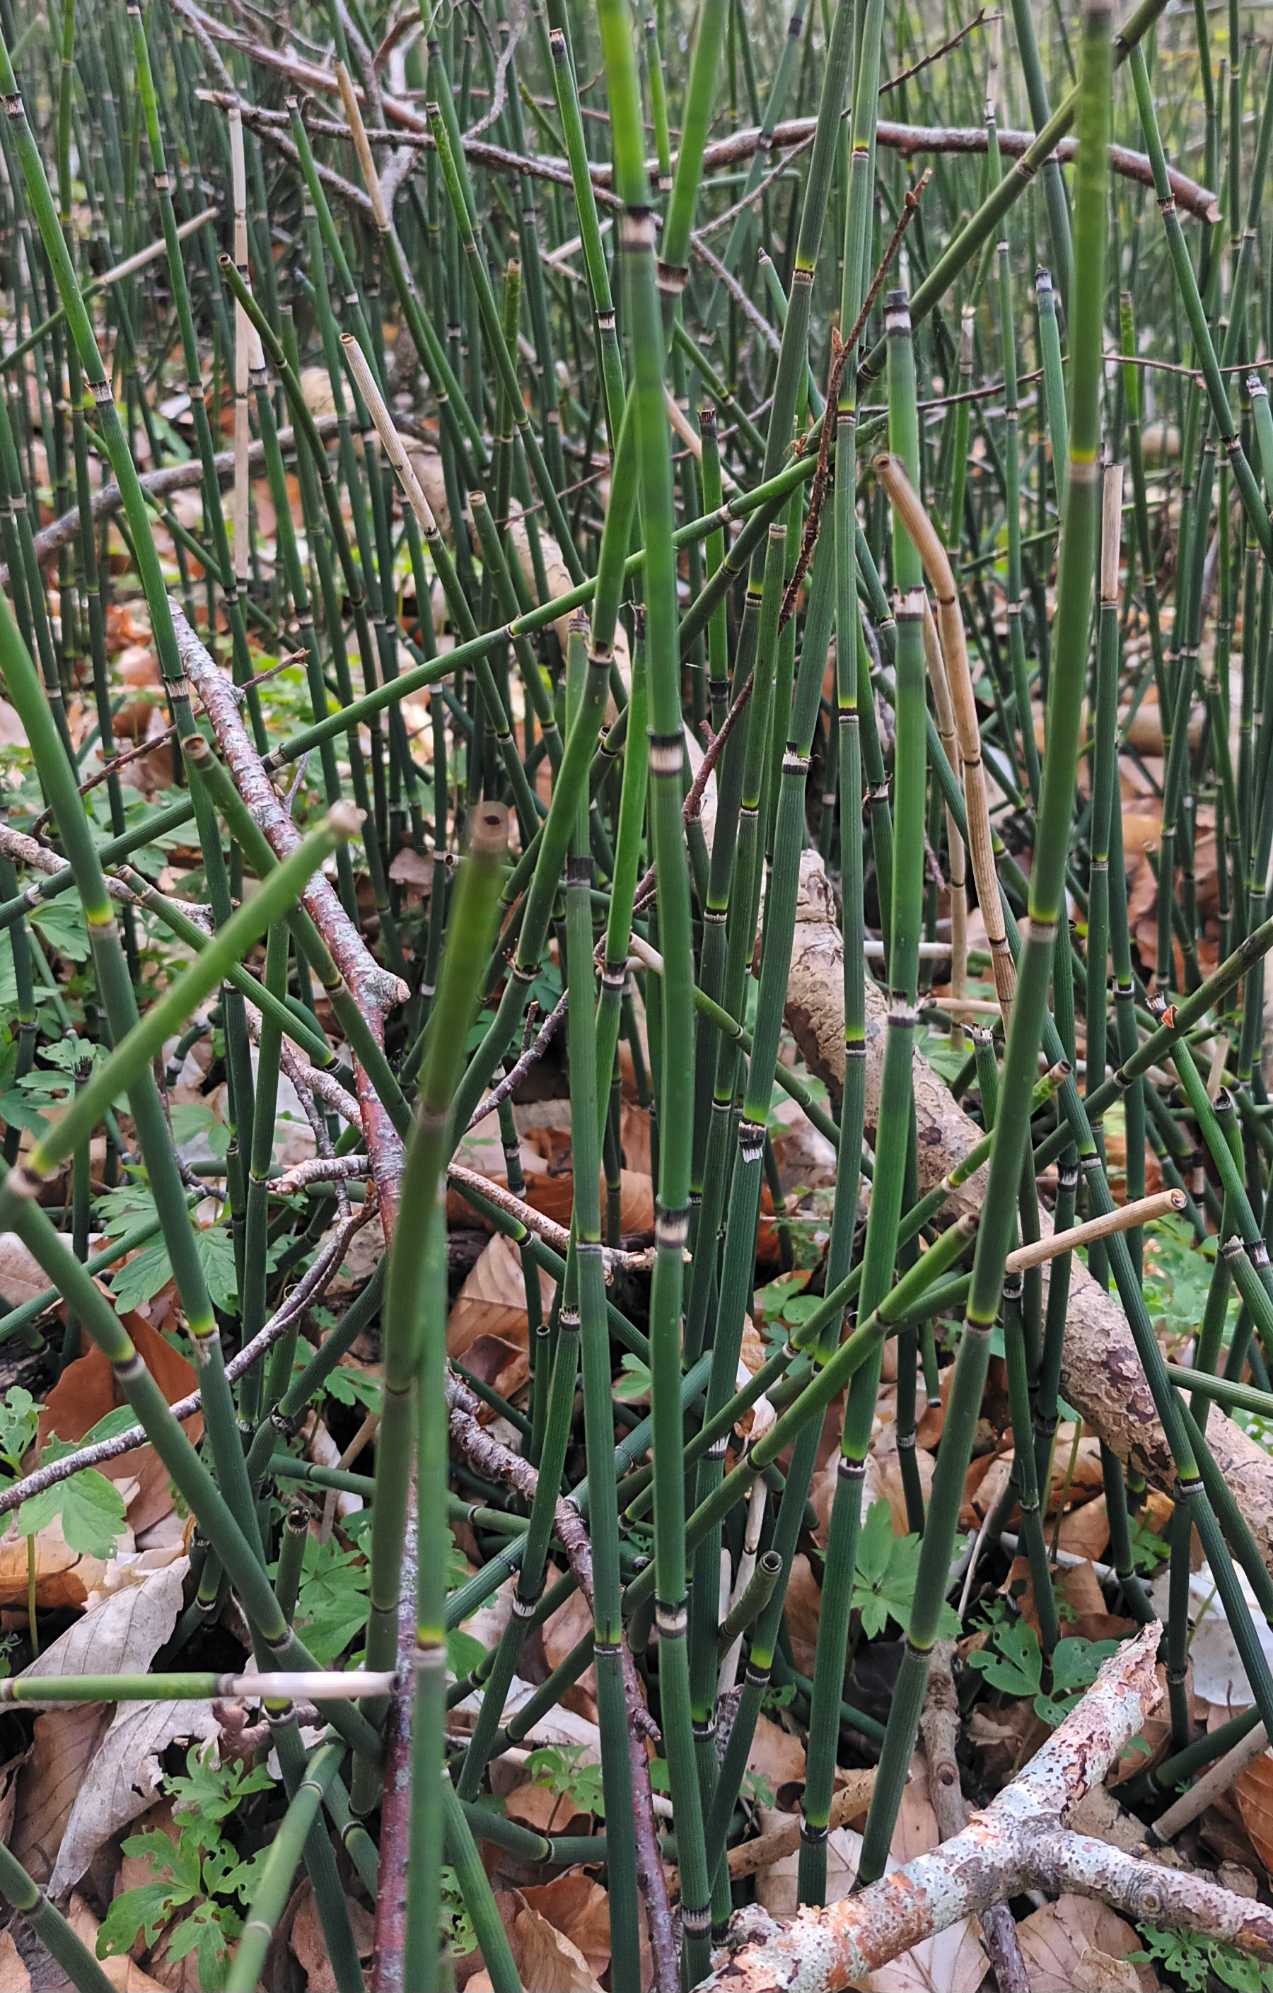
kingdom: Plantae
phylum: Tracheophyta
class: Polypodiopsida
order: Equisetales
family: Equisetaceae
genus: Equisetum
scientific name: Equisetum hyemale
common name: Skavgræs
